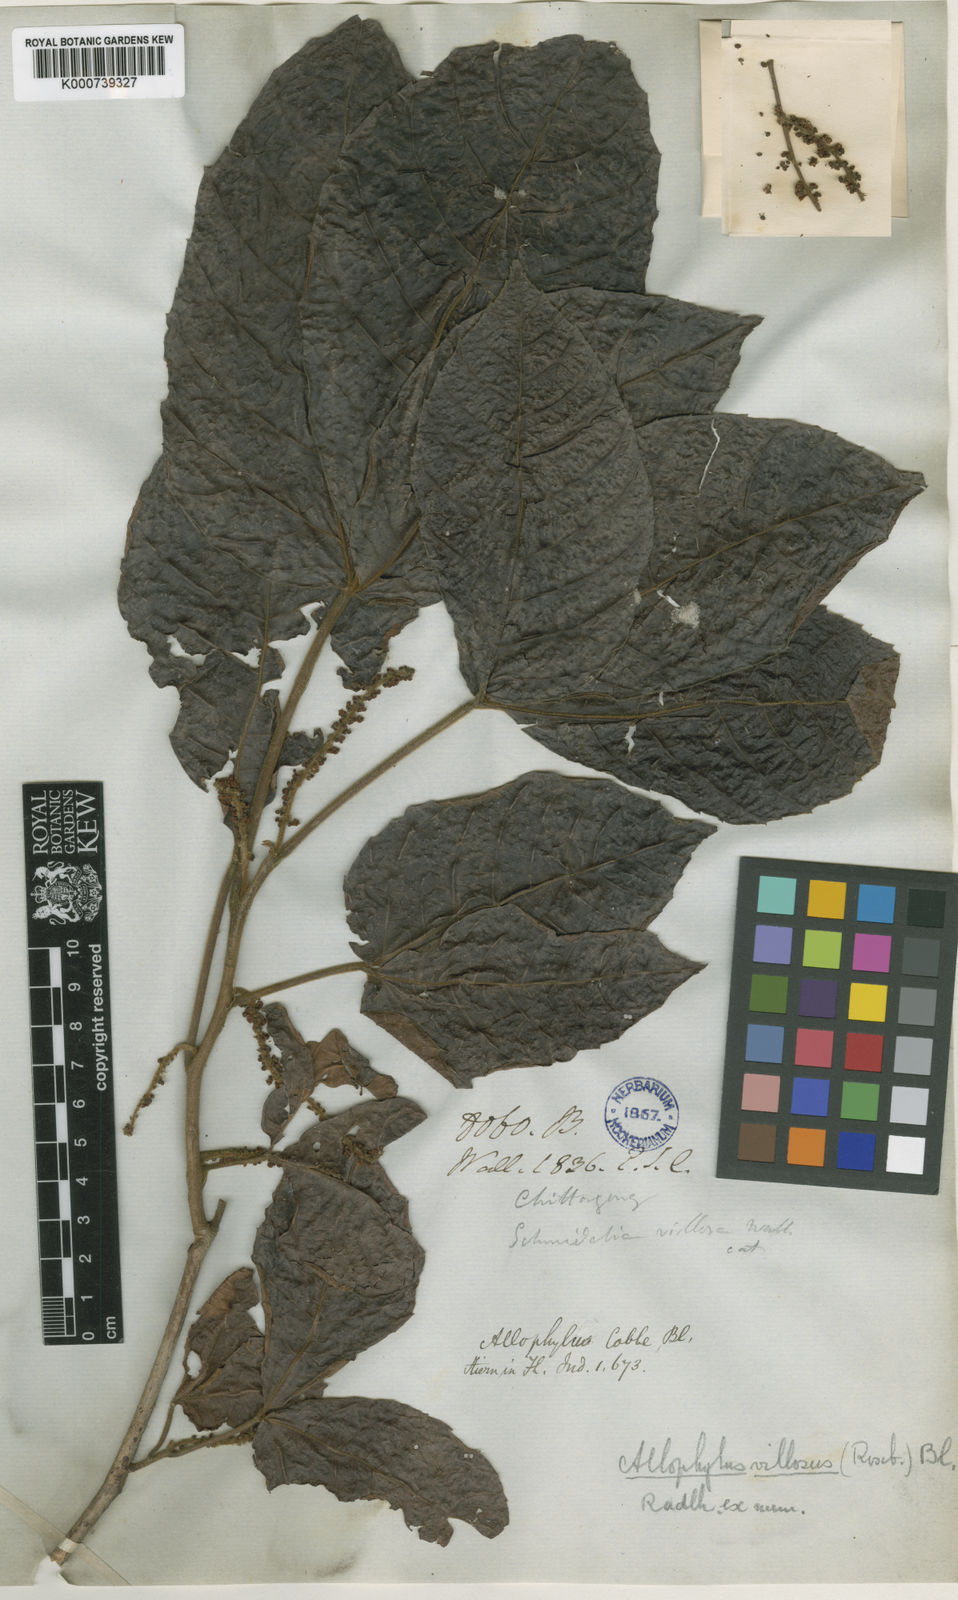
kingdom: Plantae
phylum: Tracheophyta
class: Magnoliopsida
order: Sapindales
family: Sapindaceae
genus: Allophylus
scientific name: Allophylus villosus
